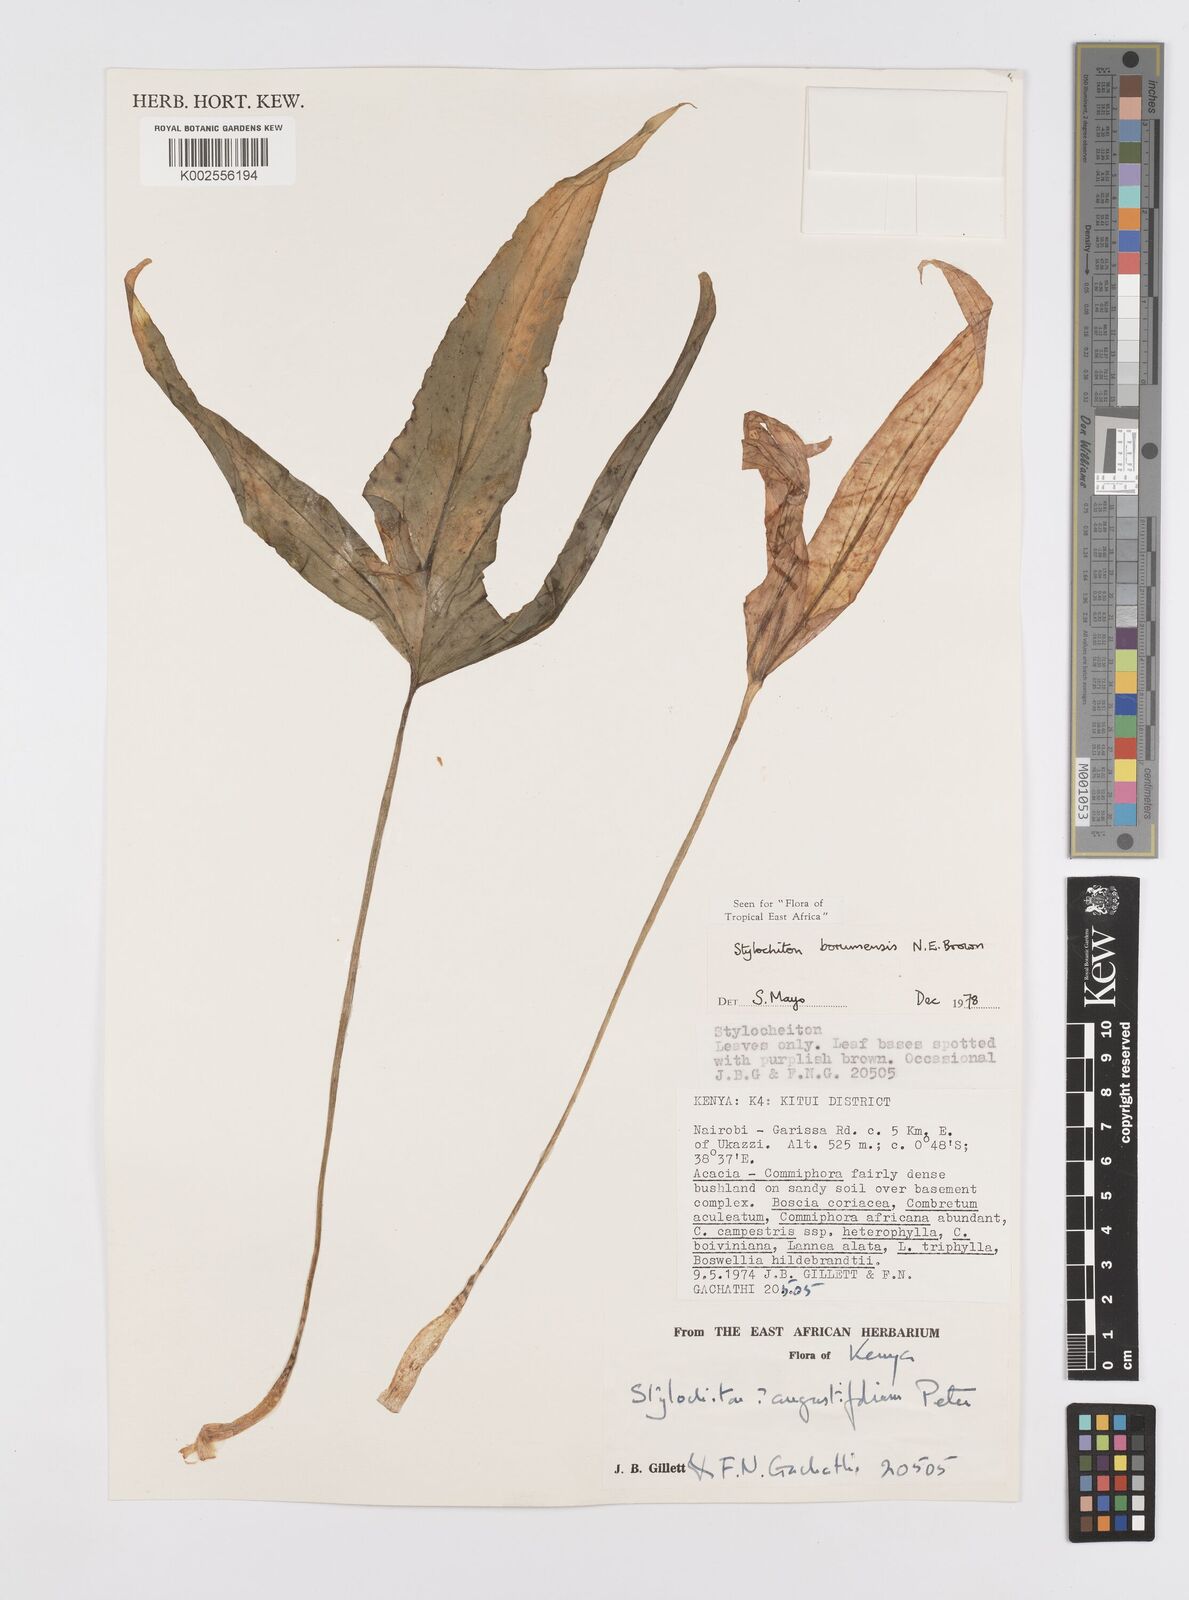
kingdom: Plantae
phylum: Tracheophyta
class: Liliopsida
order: Alismatales
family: Araceae
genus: Stylochaeton
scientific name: Stylochaeton borumense
